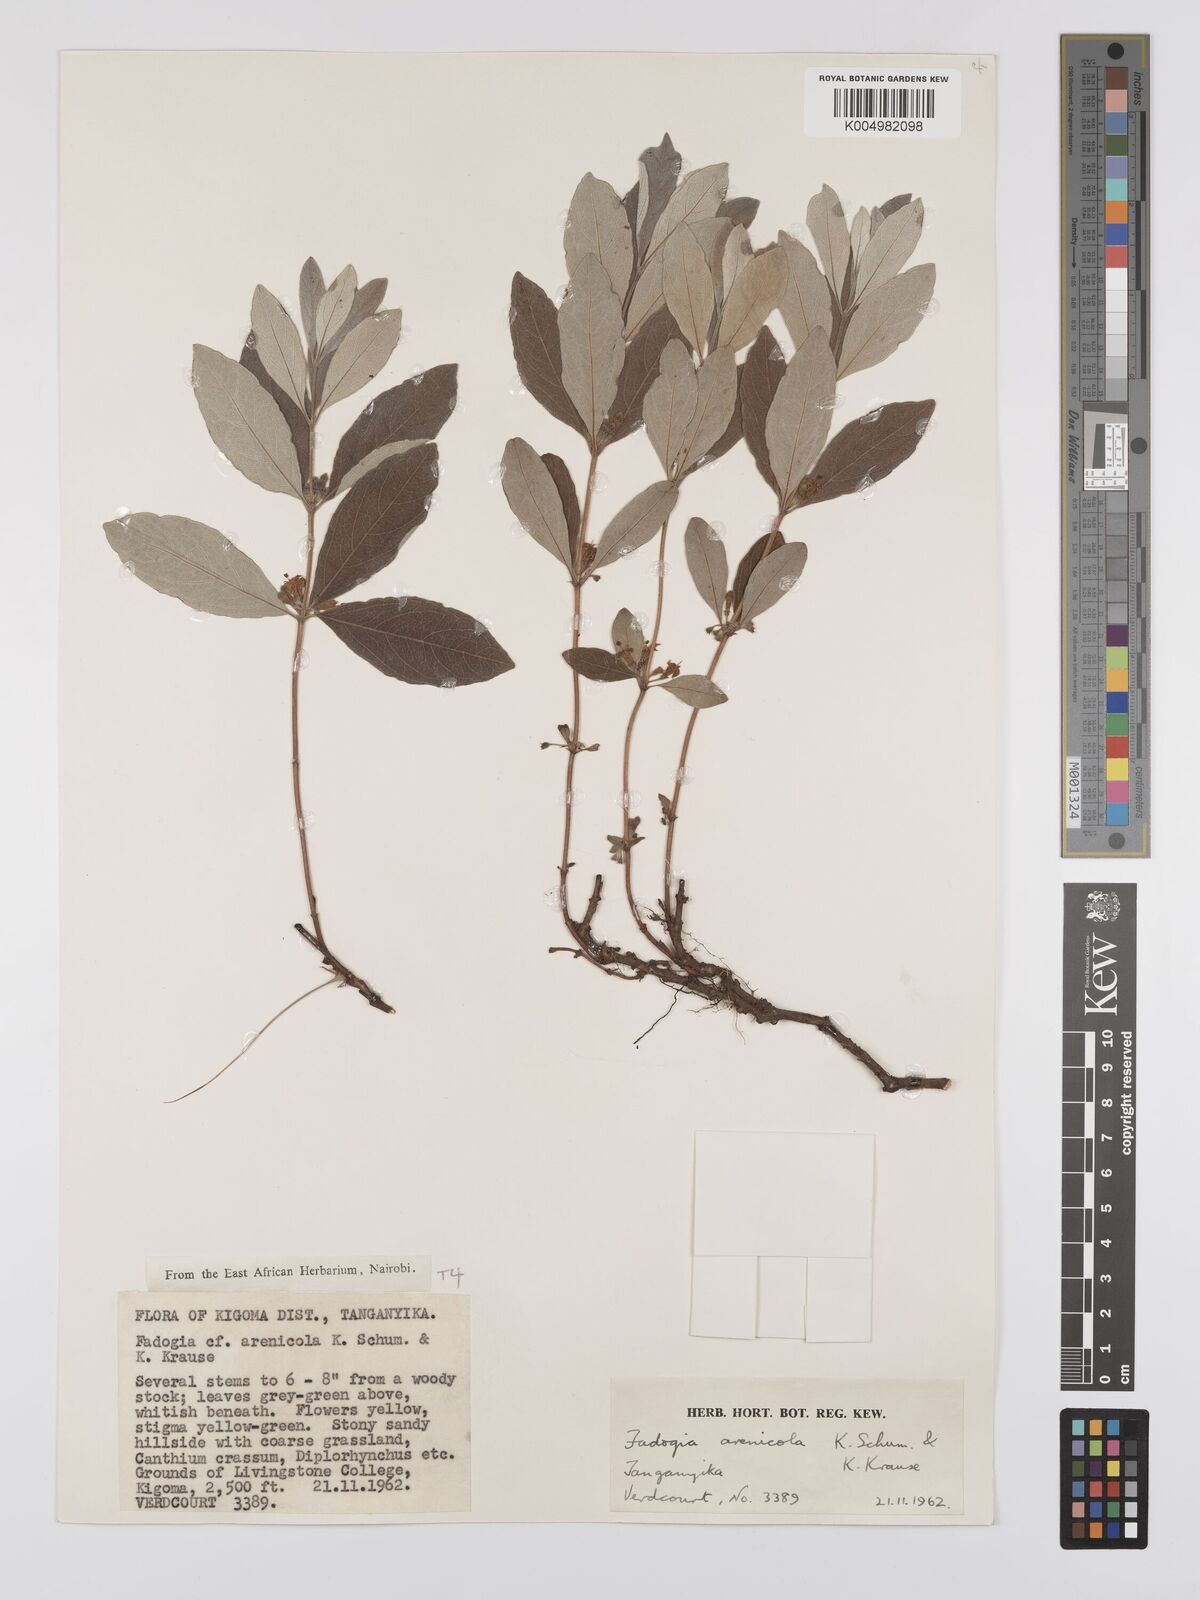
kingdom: Plantae
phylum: Tracheophyta
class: Magnoliopsida
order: Gentianales
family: Rubiaceae
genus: Fadogia
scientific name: Fadogia arenicola
